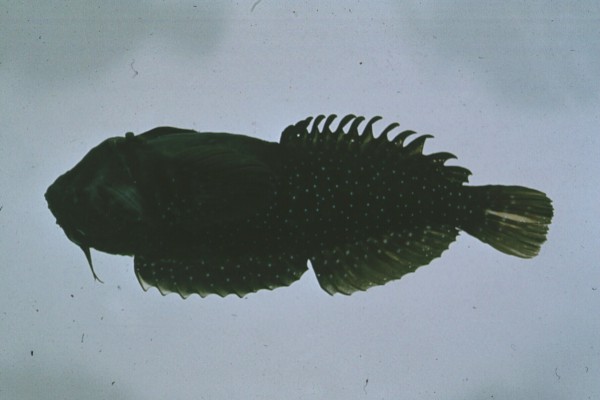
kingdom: Animalia
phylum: Chordata
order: Perciformes
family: Blenniidae
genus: Pereulixia
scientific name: Pereulixia kosiensis
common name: Kosi rockskipper
